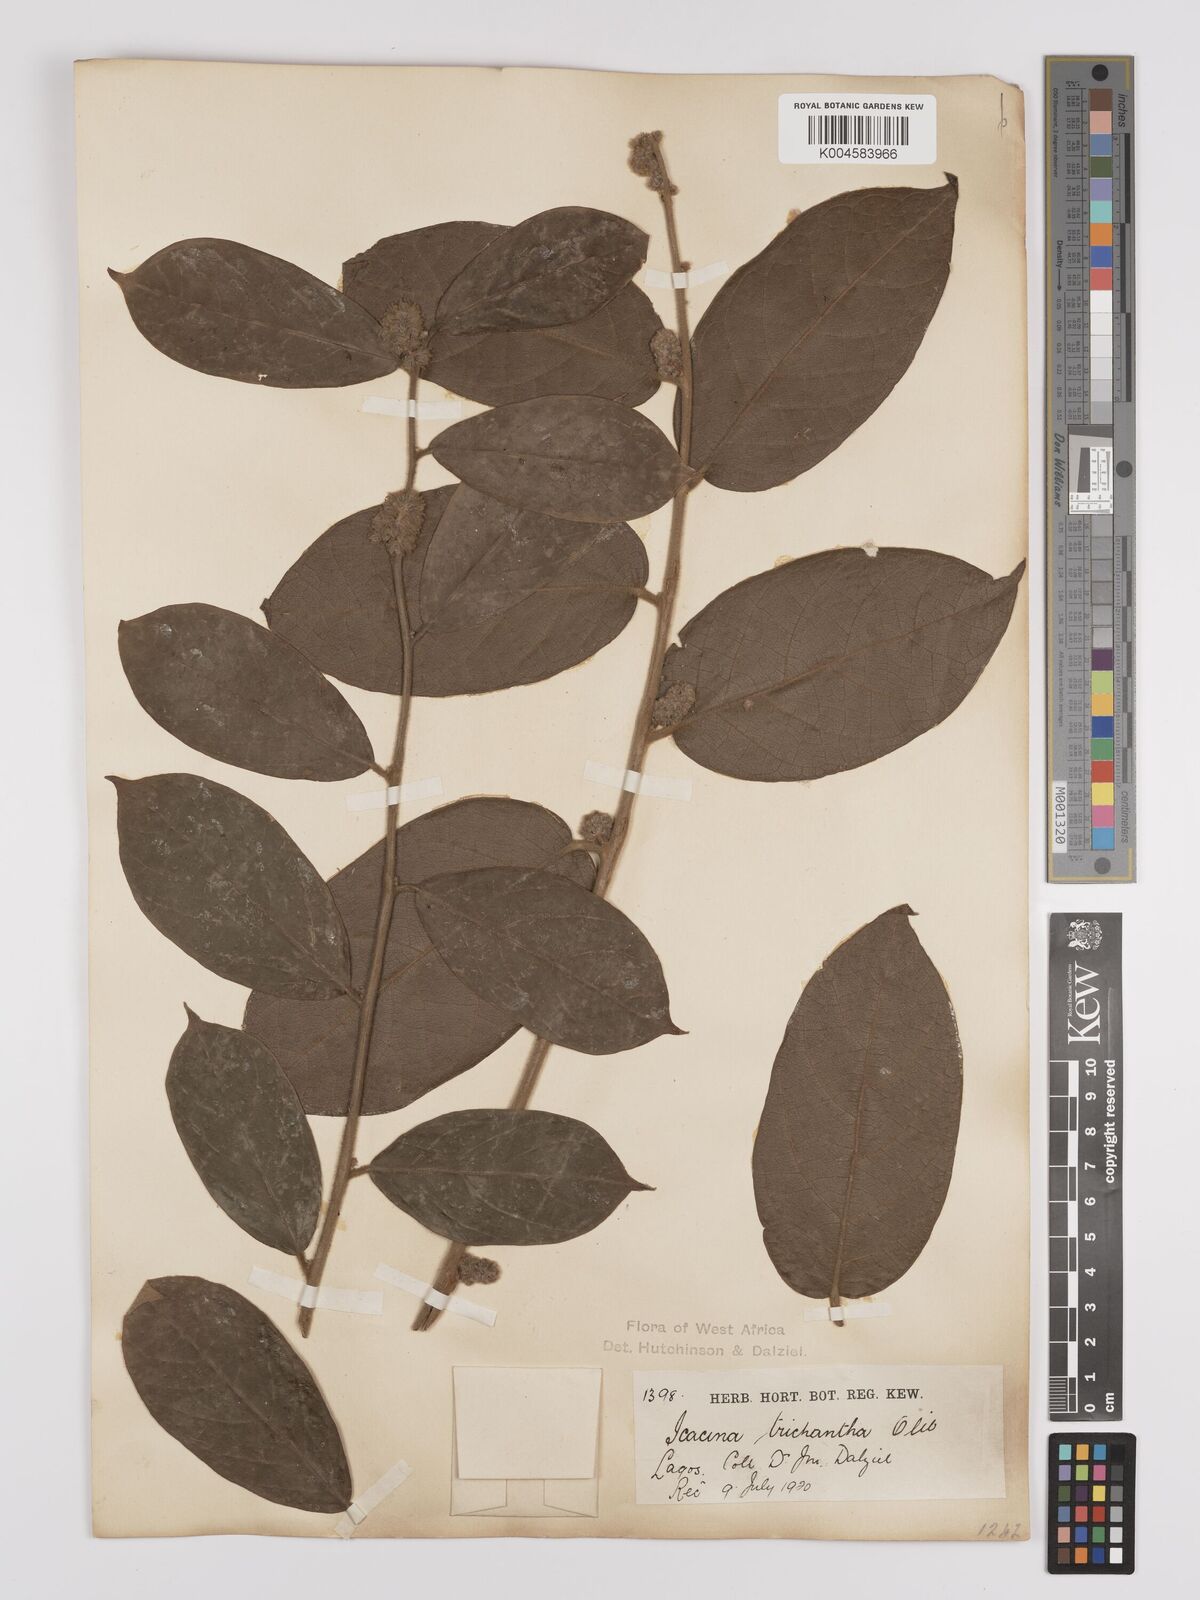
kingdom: Plantae
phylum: Tracheophyta
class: Magnoliopsida
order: Icacinales
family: Icacinaceae
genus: Icacina
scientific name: Icacina trichantha
